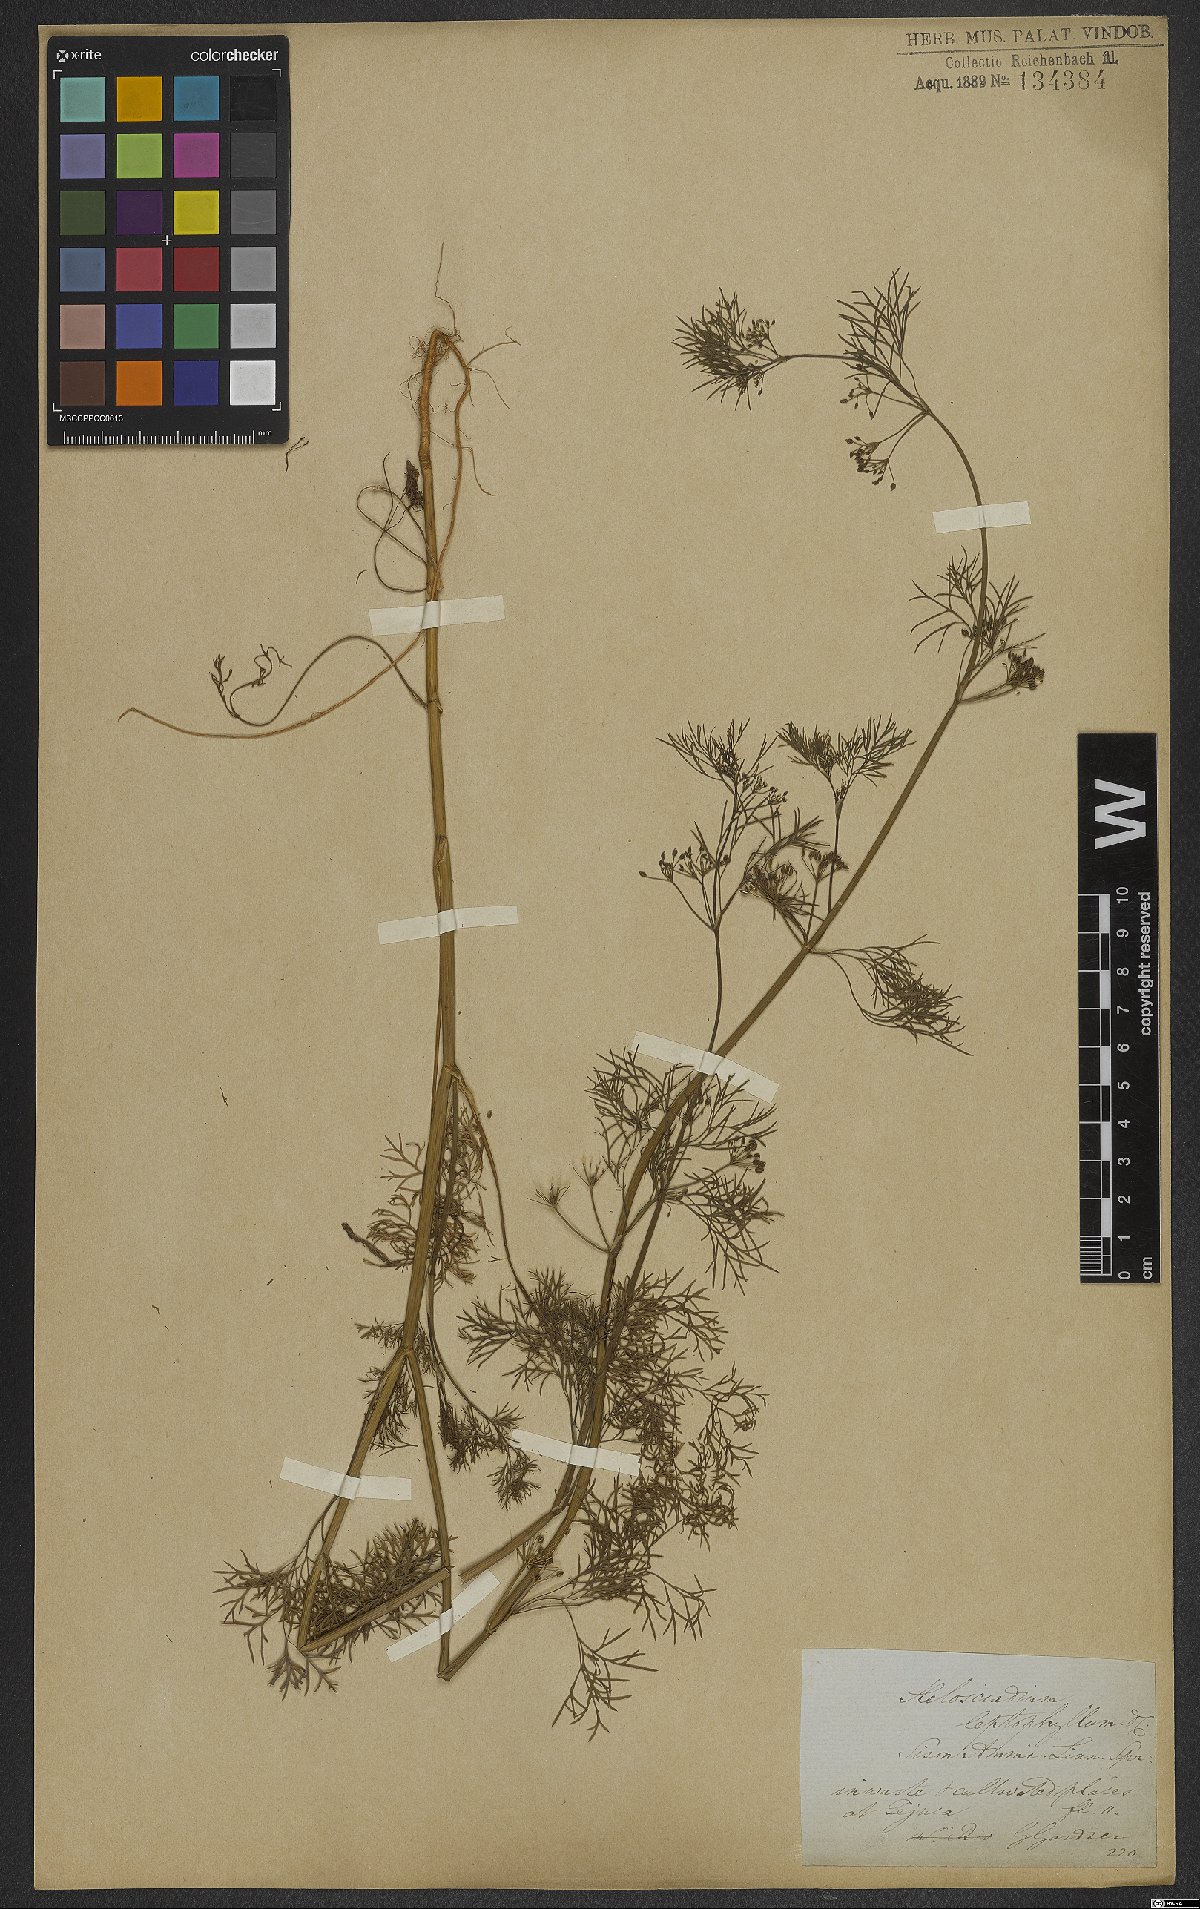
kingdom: Plantae
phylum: Tracheophyta
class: Magnoliopsida
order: Apiales
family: Apiaceae
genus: Cyclospermum
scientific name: Cyclospermum leptophyllum
